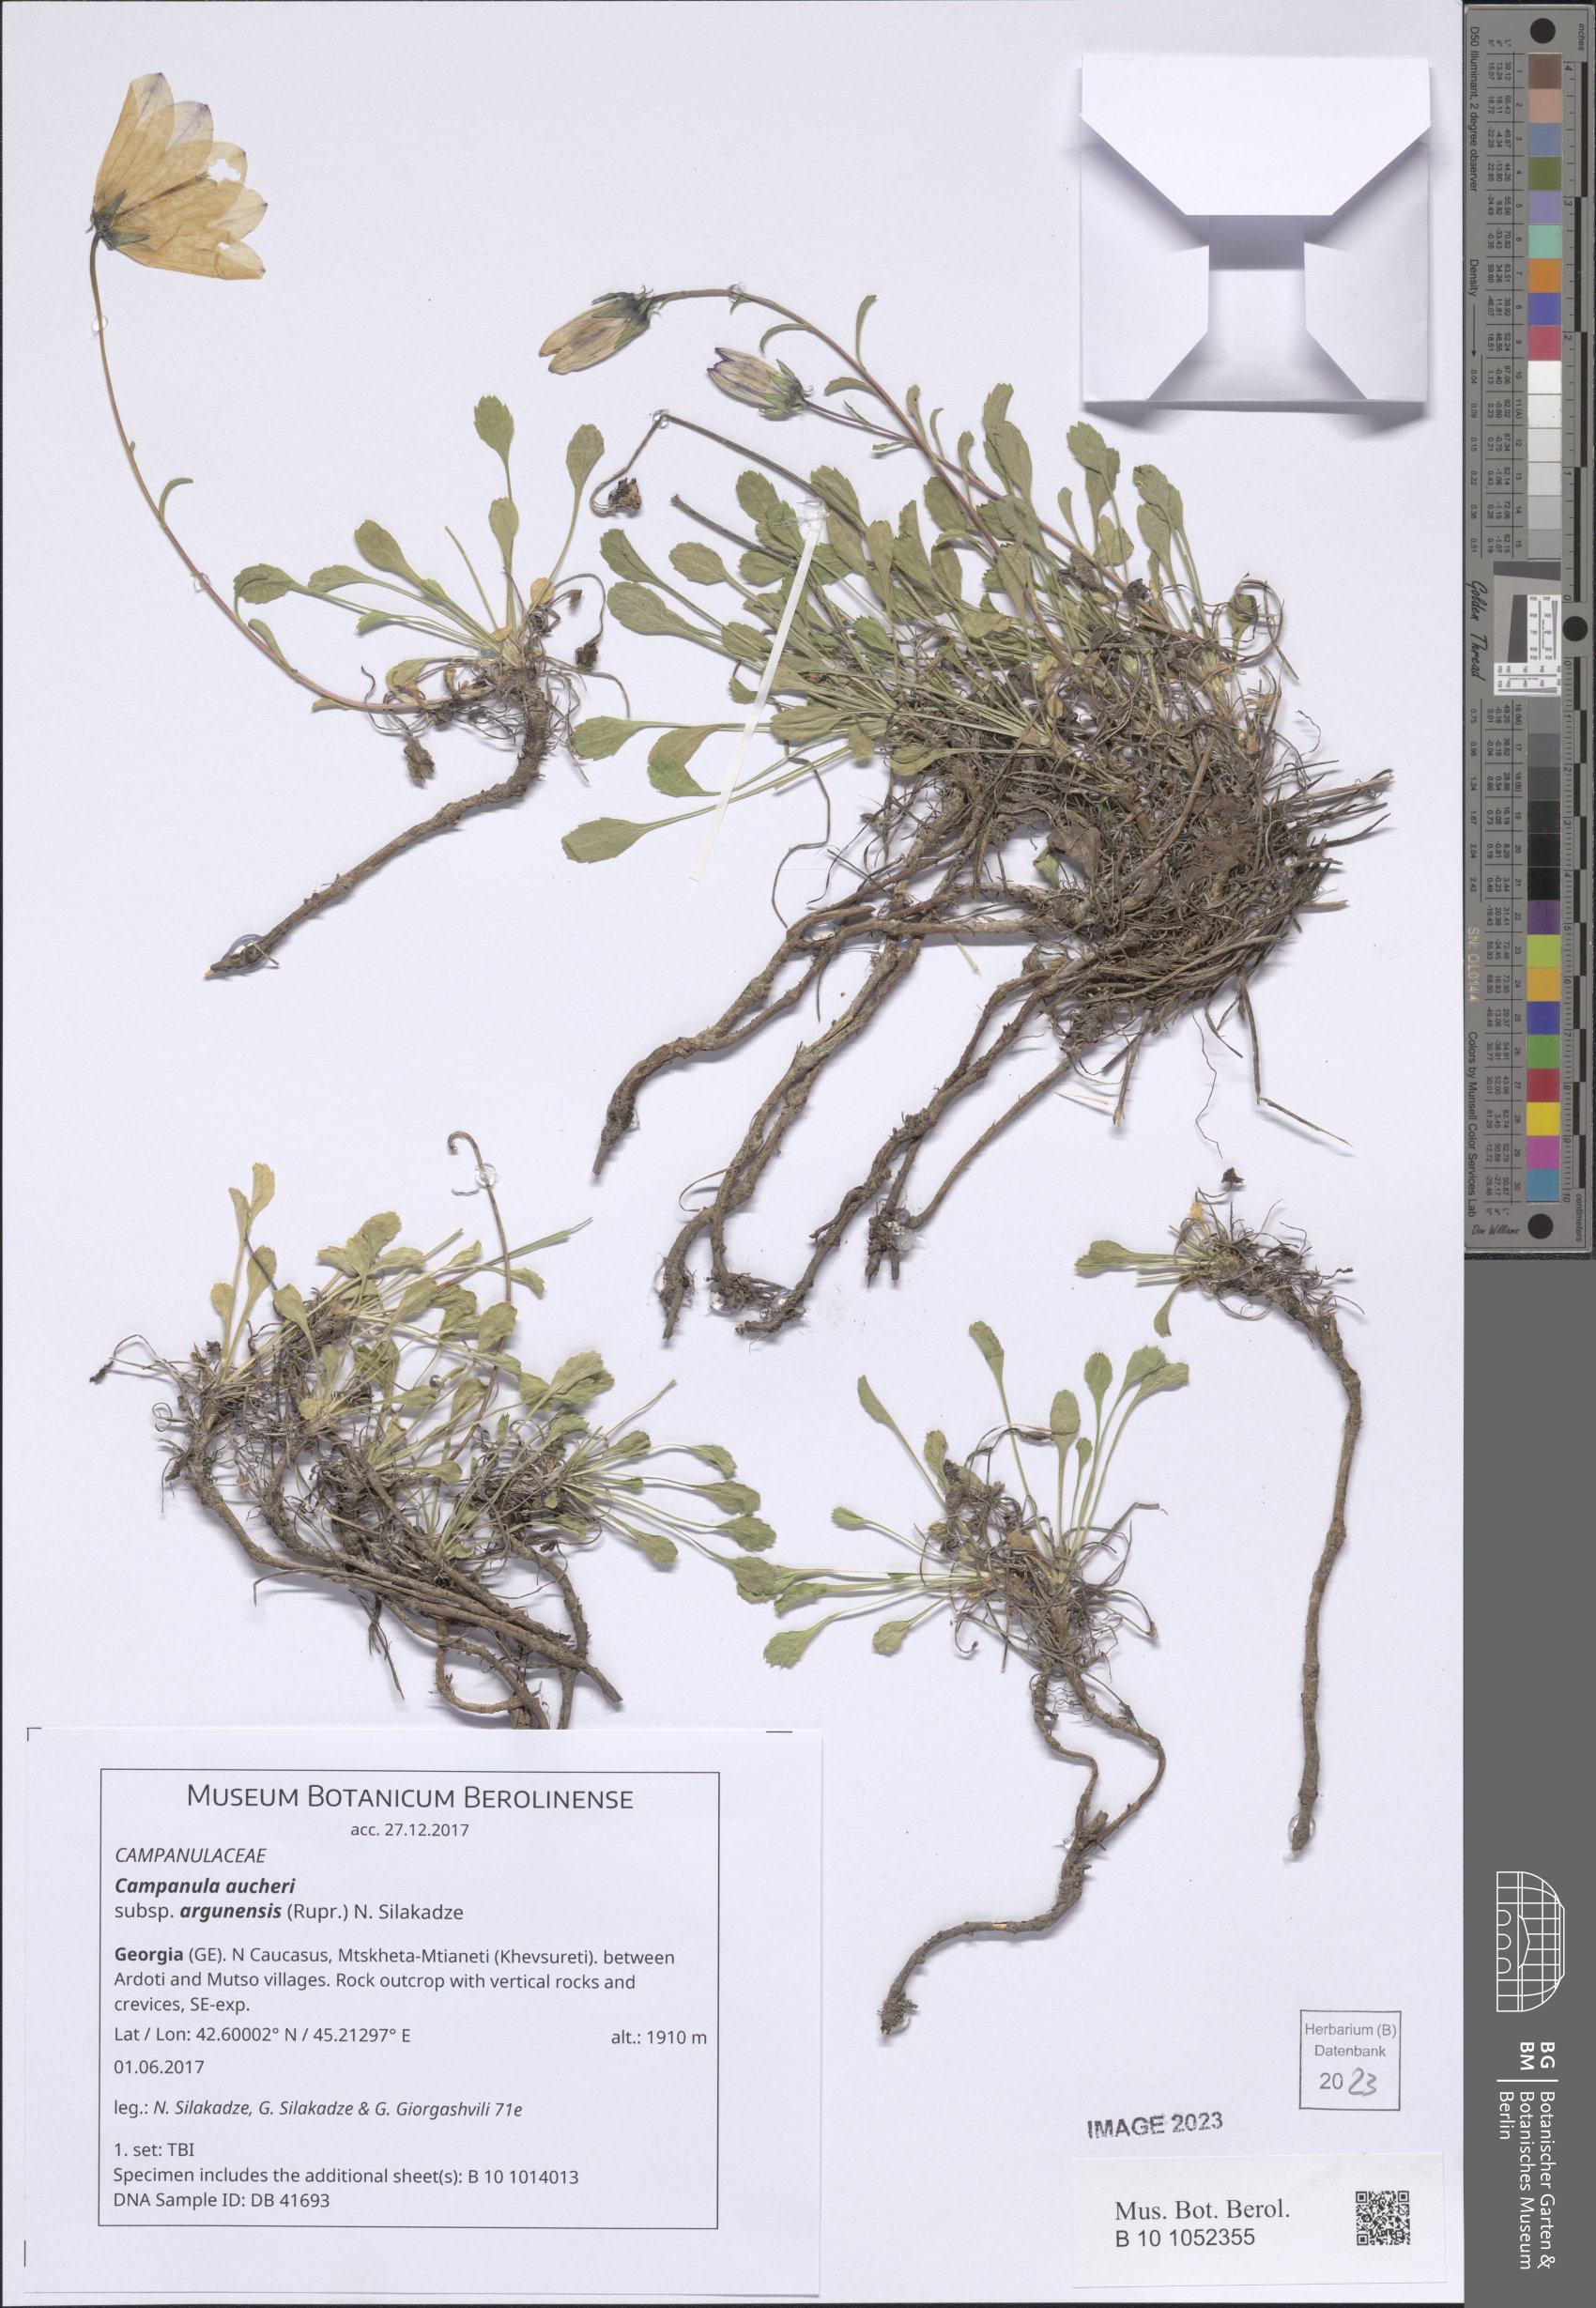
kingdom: Plantae
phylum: Tracheophyta
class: Magnoliopsida
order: Asterales
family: Campanulaceae
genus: Campanula
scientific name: Campanula saxifraga
